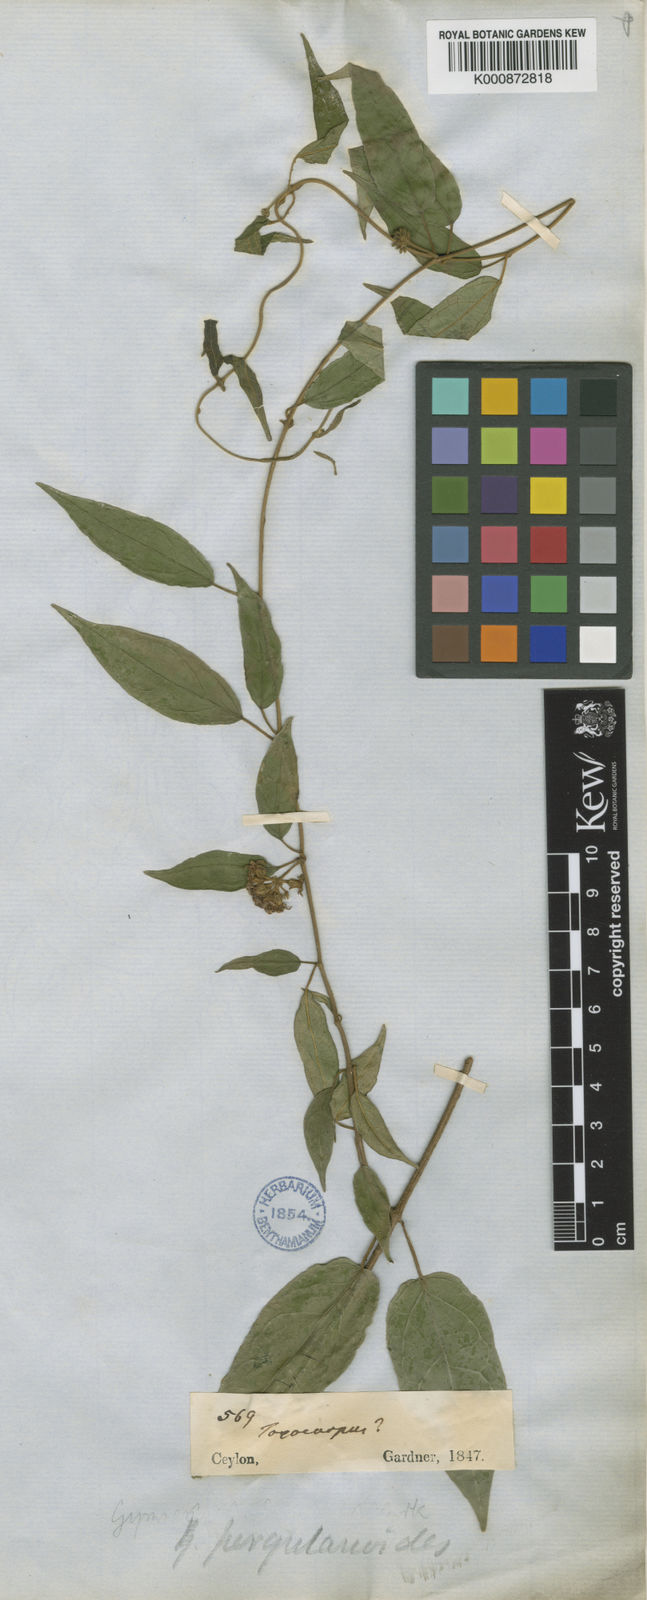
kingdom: Plantae
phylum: Tracheophyta
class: Magnoliopsida
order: Gentianales
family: Apocynaceae
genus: Gymnema
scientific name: Gymnema
